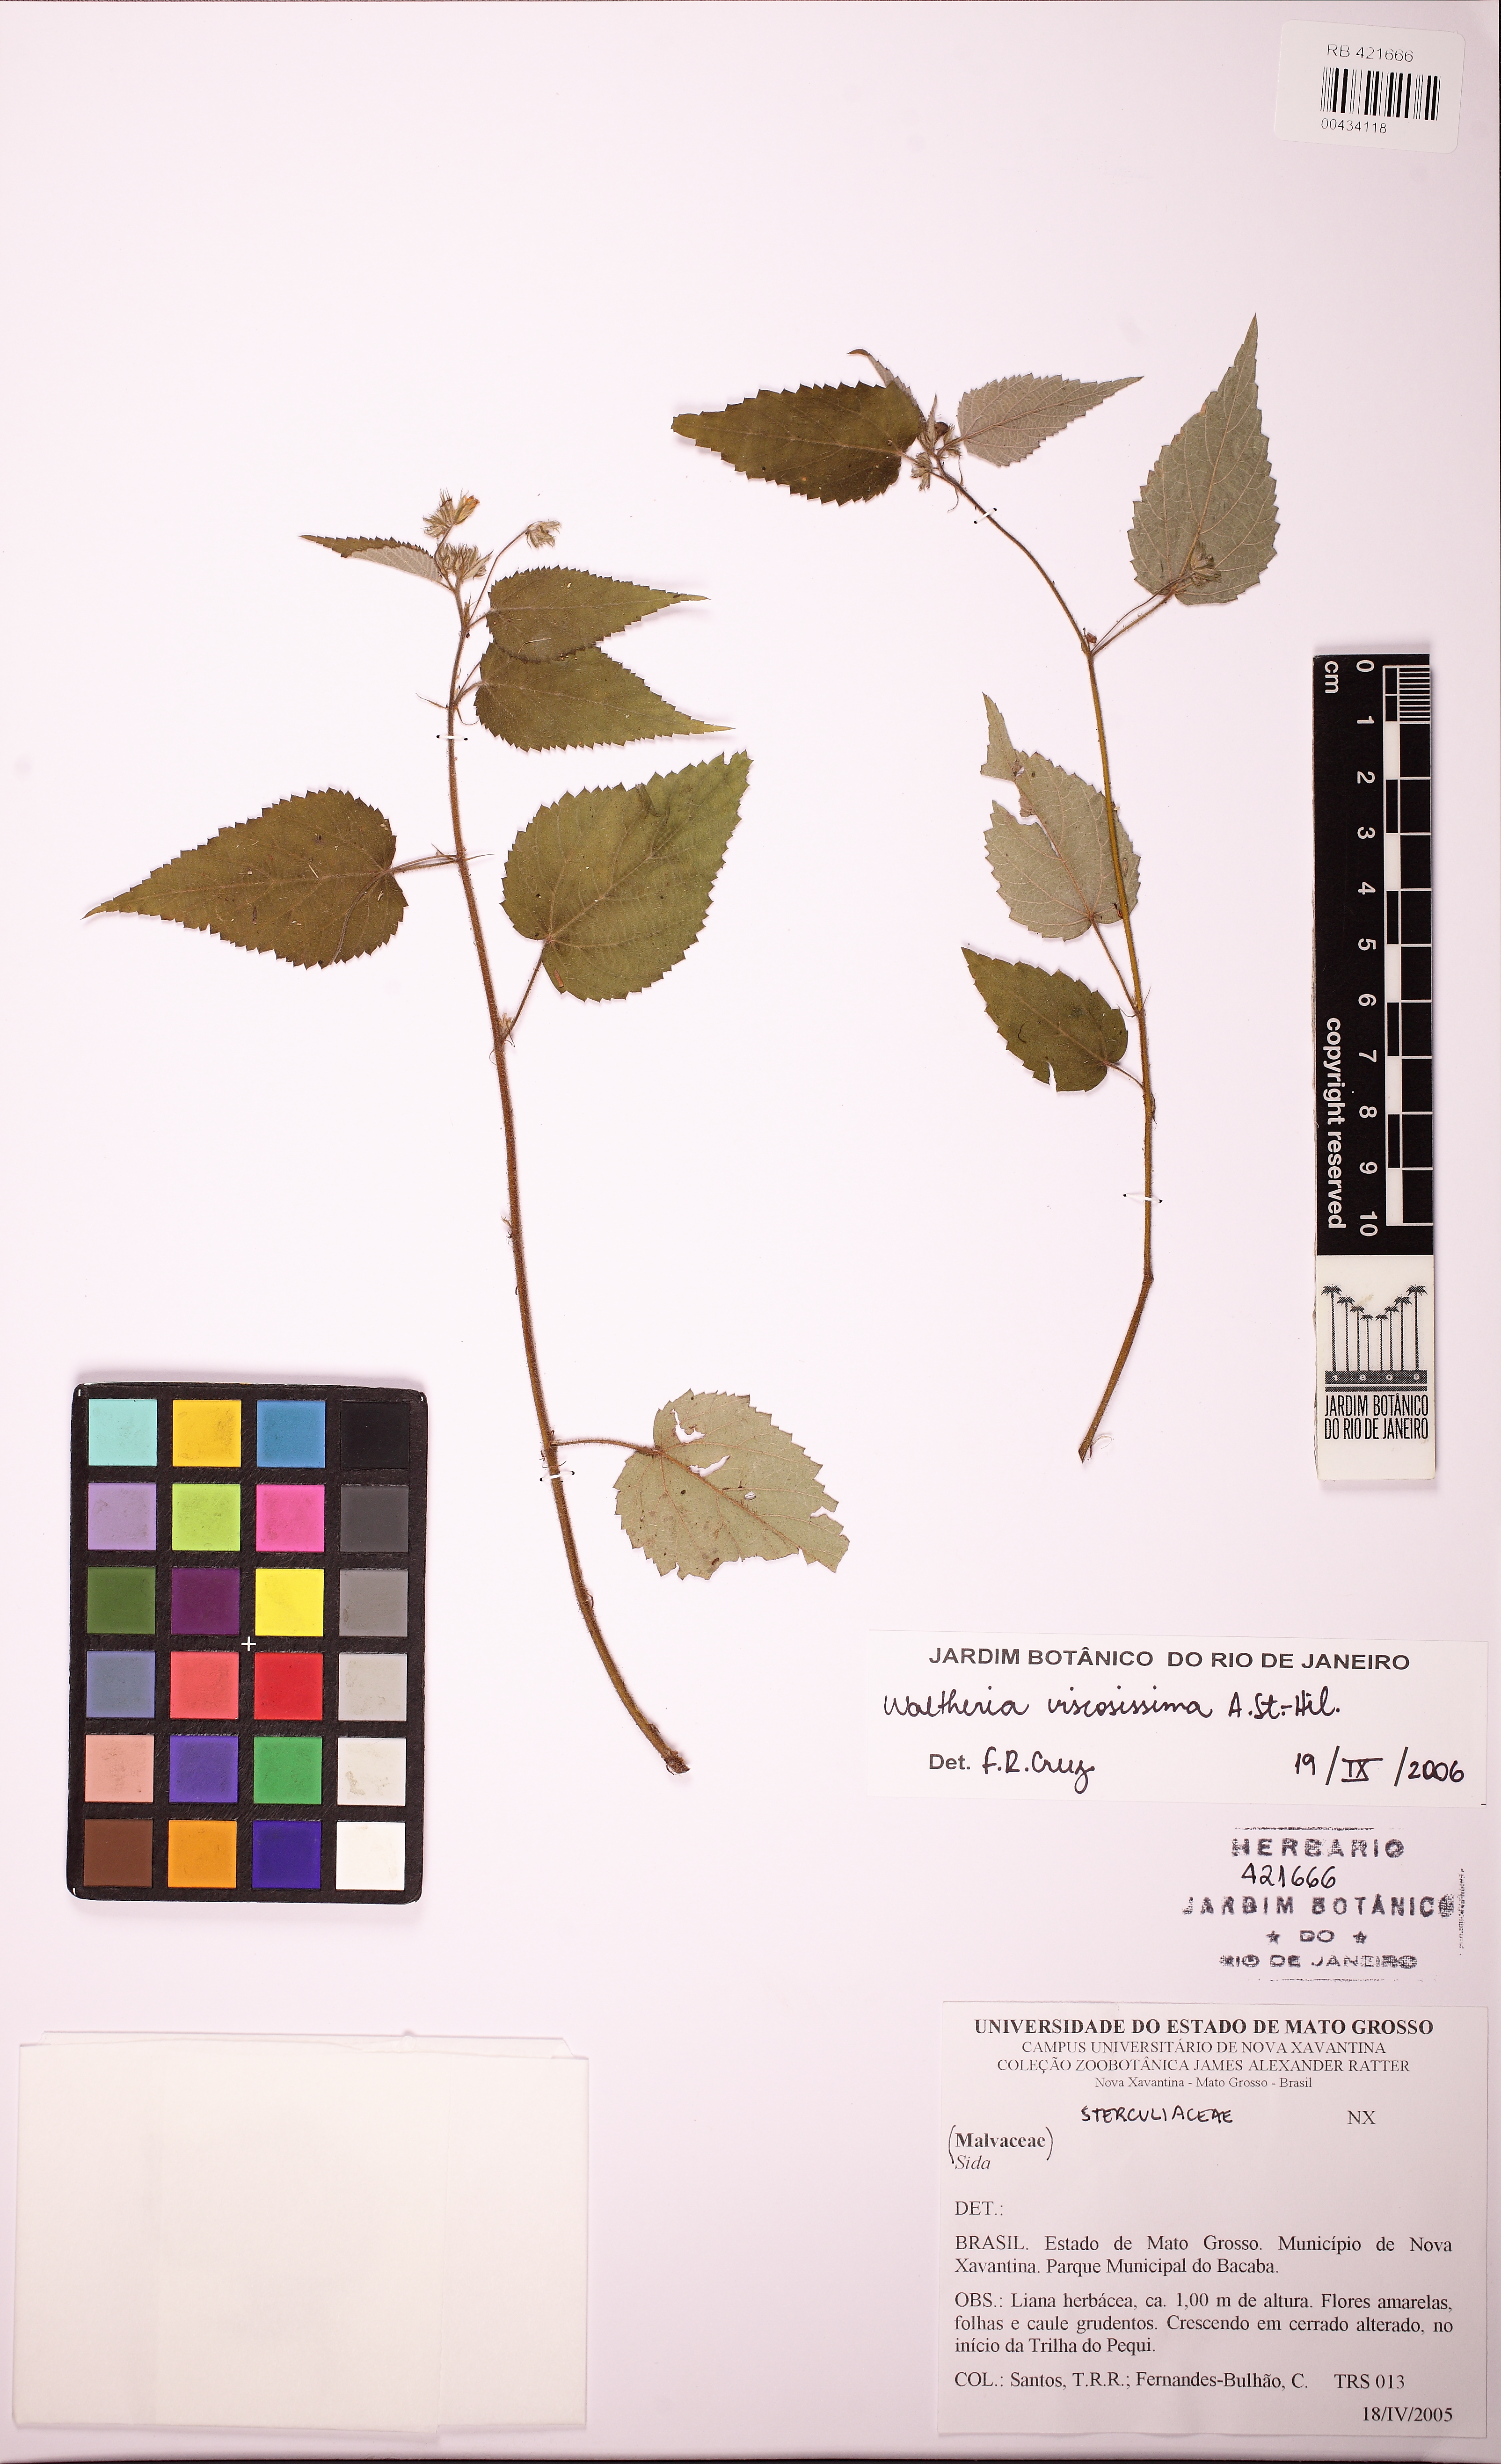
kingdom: Plantae
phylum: Tracheophyta
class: Magnoliopsida
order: Malvales
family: Malvaceae
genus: Waltheria
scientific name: Waltheria viscosissima
